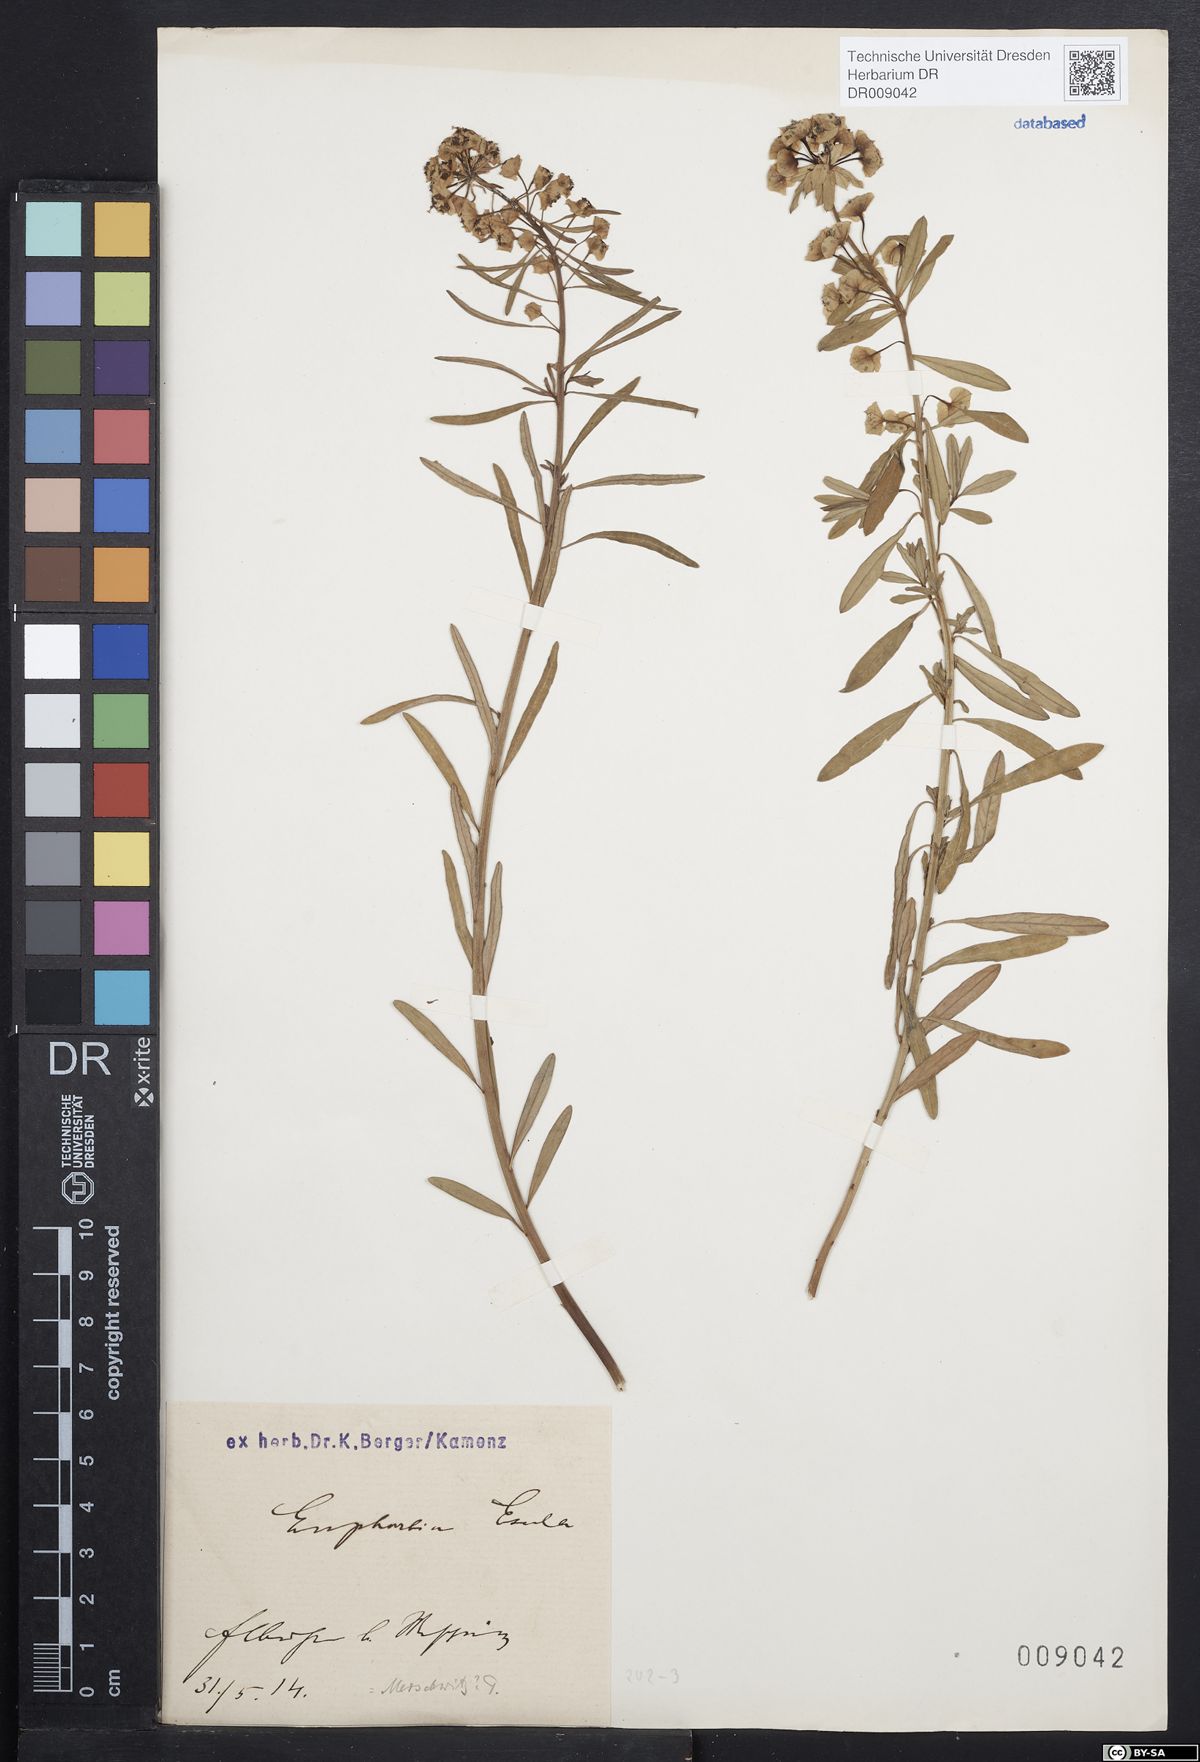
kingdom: Plantae
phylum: Tracheophyta
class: Magnoliopsida
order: Malpighiales
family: Euphorbiaceae
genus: Euphorbia
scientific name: Euphorbia esula
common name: Leafy spurge
